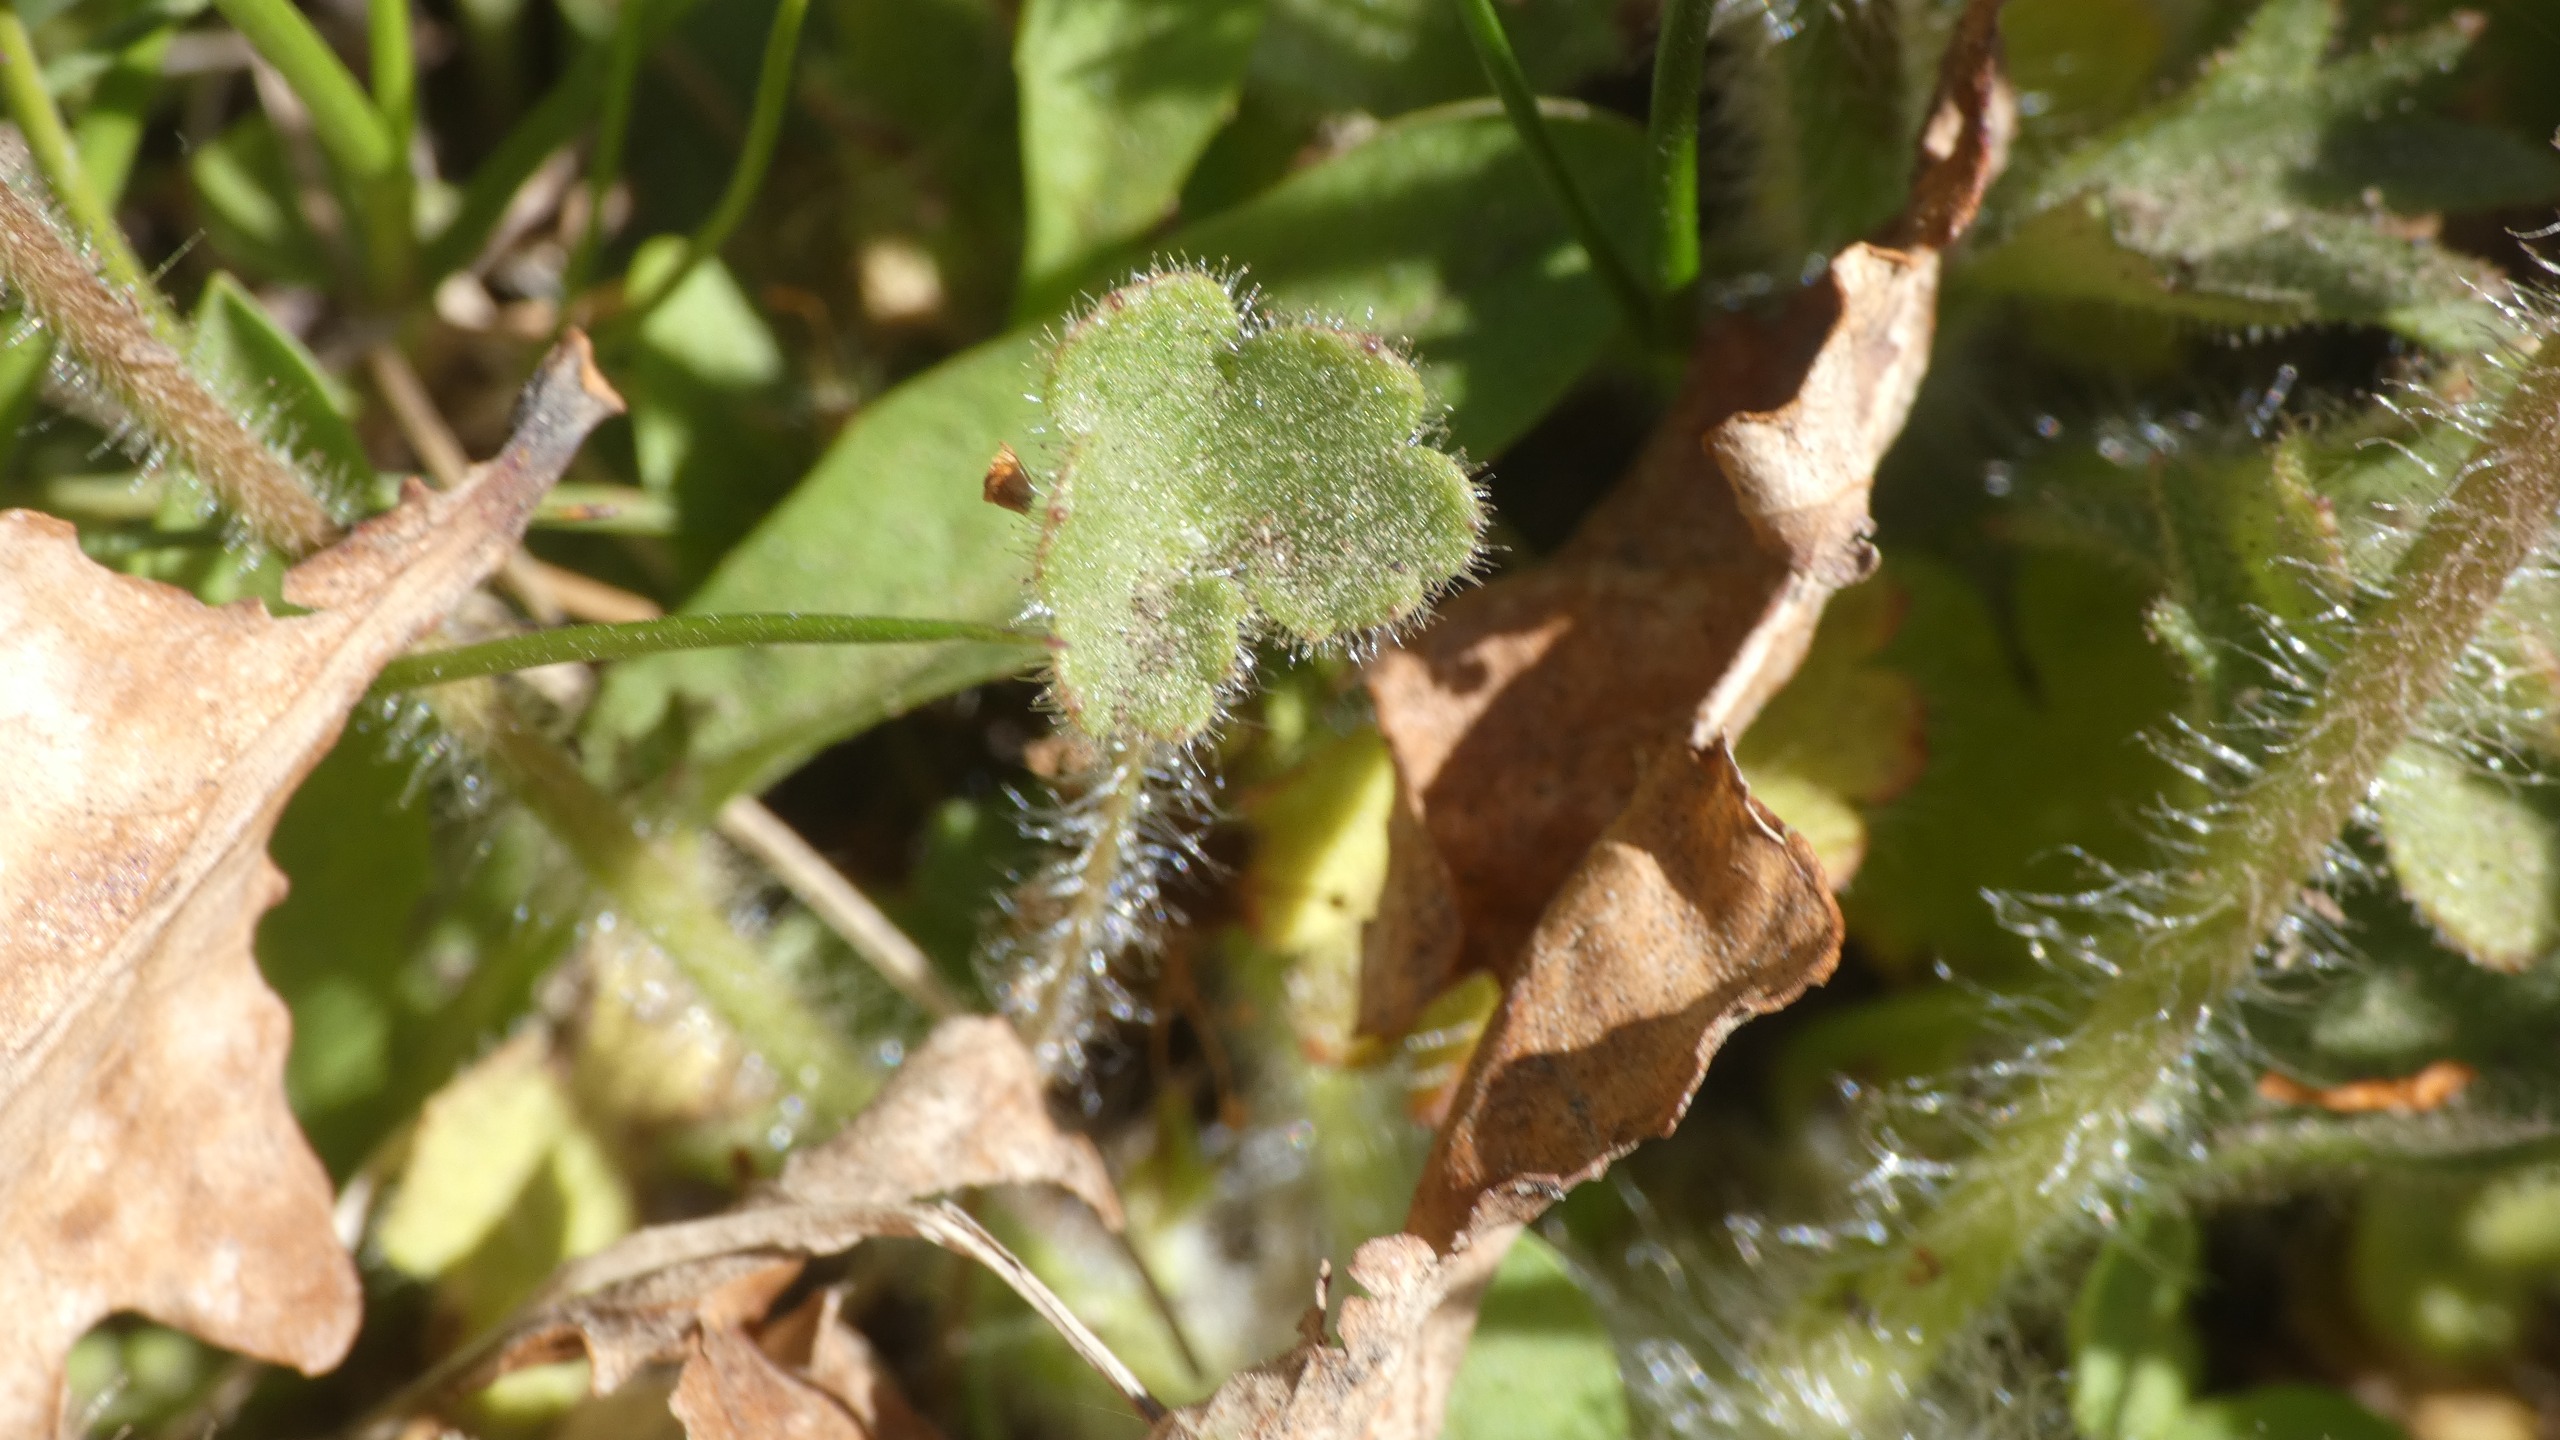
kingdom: Plantae
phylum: Tracheophyta
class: Magnoliopsida
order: Saxifragales
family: Saxifragaceae
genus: Saxifraga
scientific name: Saxifraga granulata
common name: Kornet stenbræk
